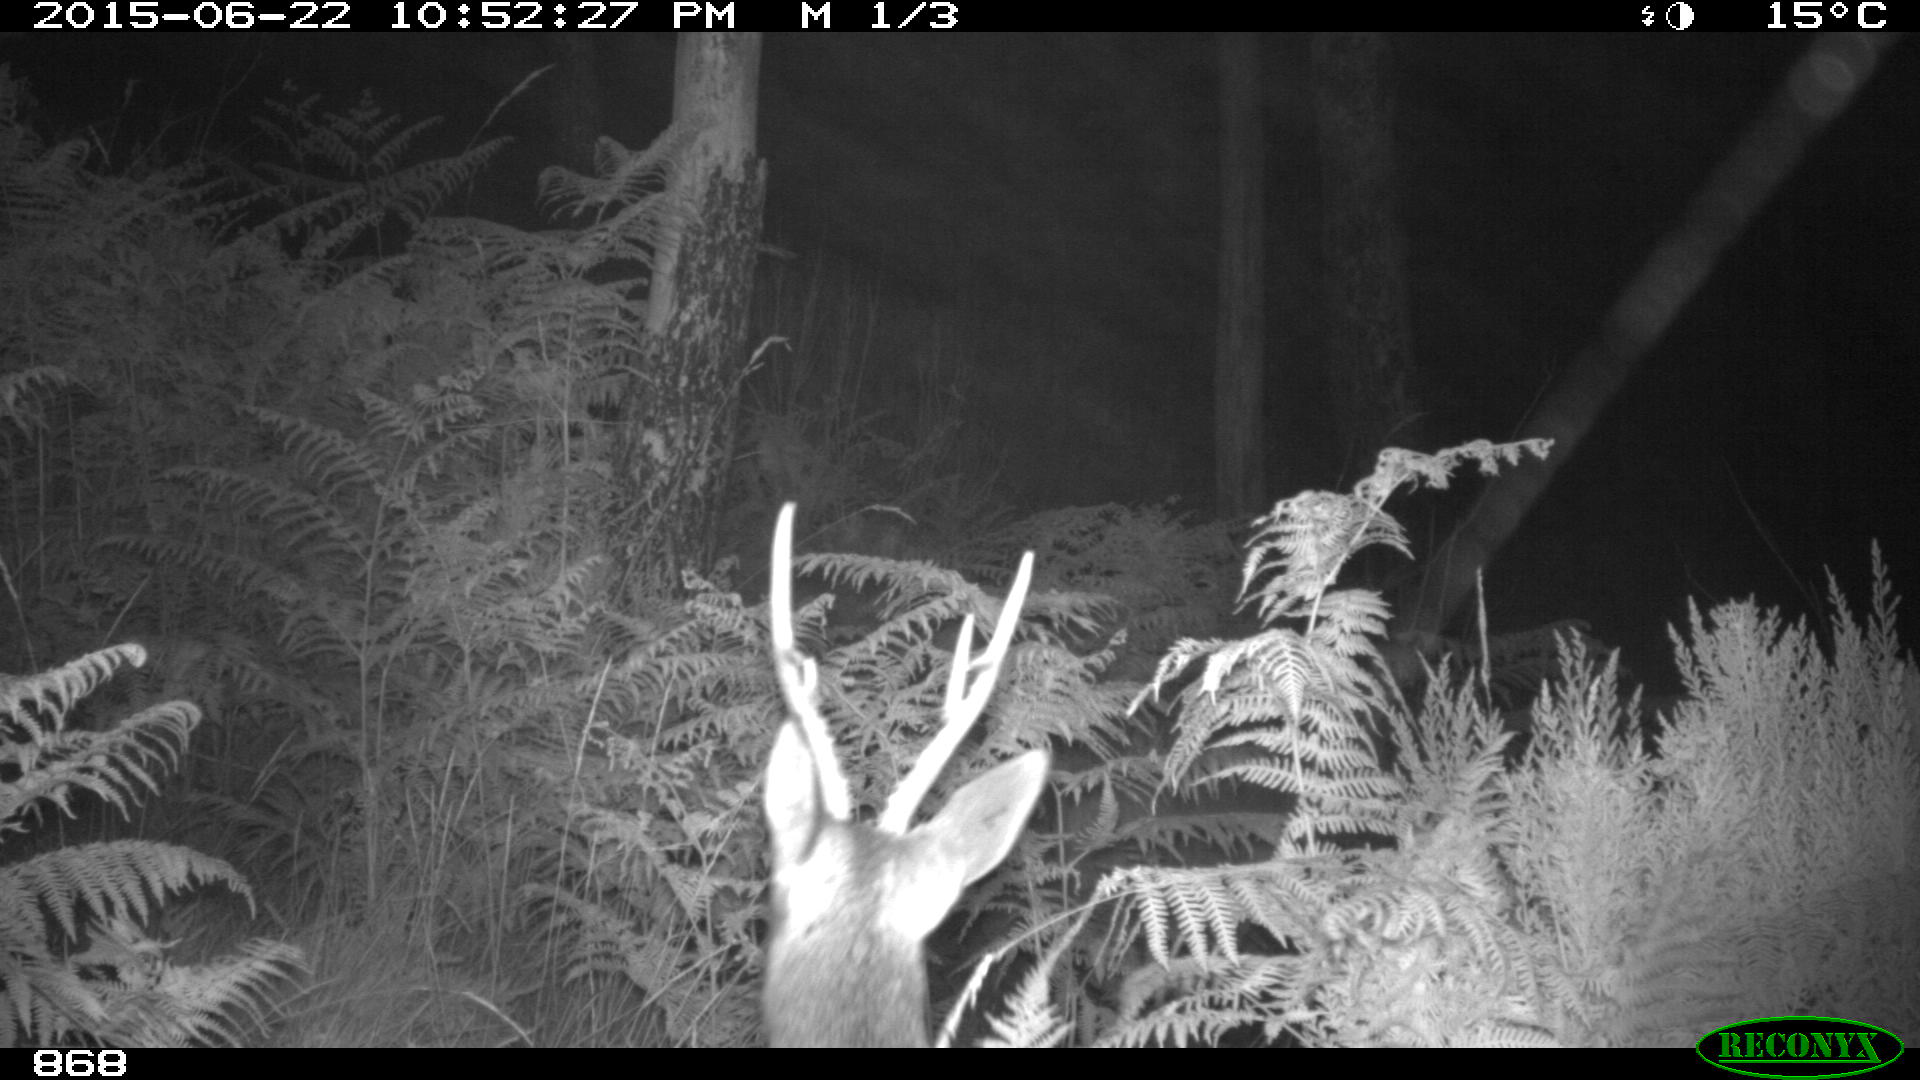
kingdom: Animalia
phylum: Chordata
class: Mammalia
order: Artiodactyla
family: Cervidae
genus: Capreolus
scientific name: Capreolus capreolus
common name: Western roe deer
